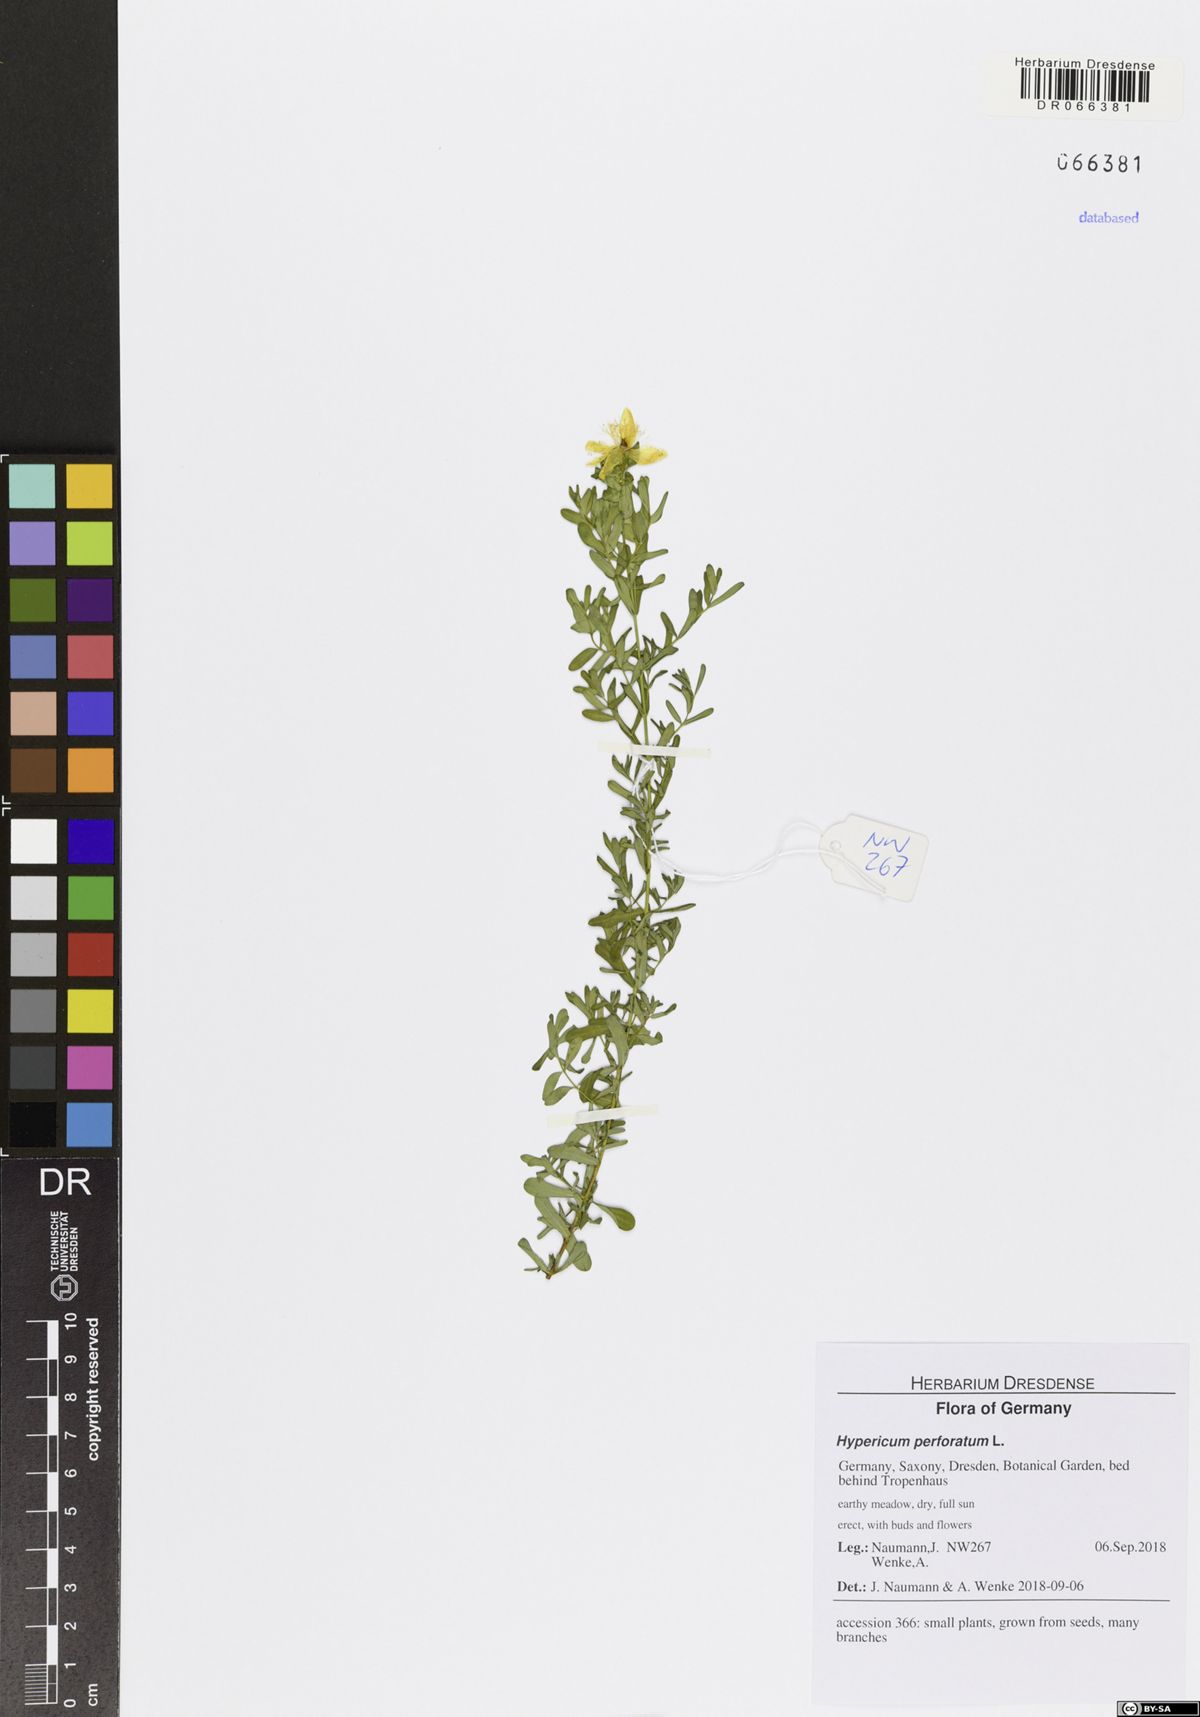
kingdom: Plantae
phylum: Tracheophyta
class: Magnoliopsida
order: Malpighiales
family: Hypericaceae
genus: Hypericum
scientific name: Hypericum perforatum
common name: Common st. johnswort
